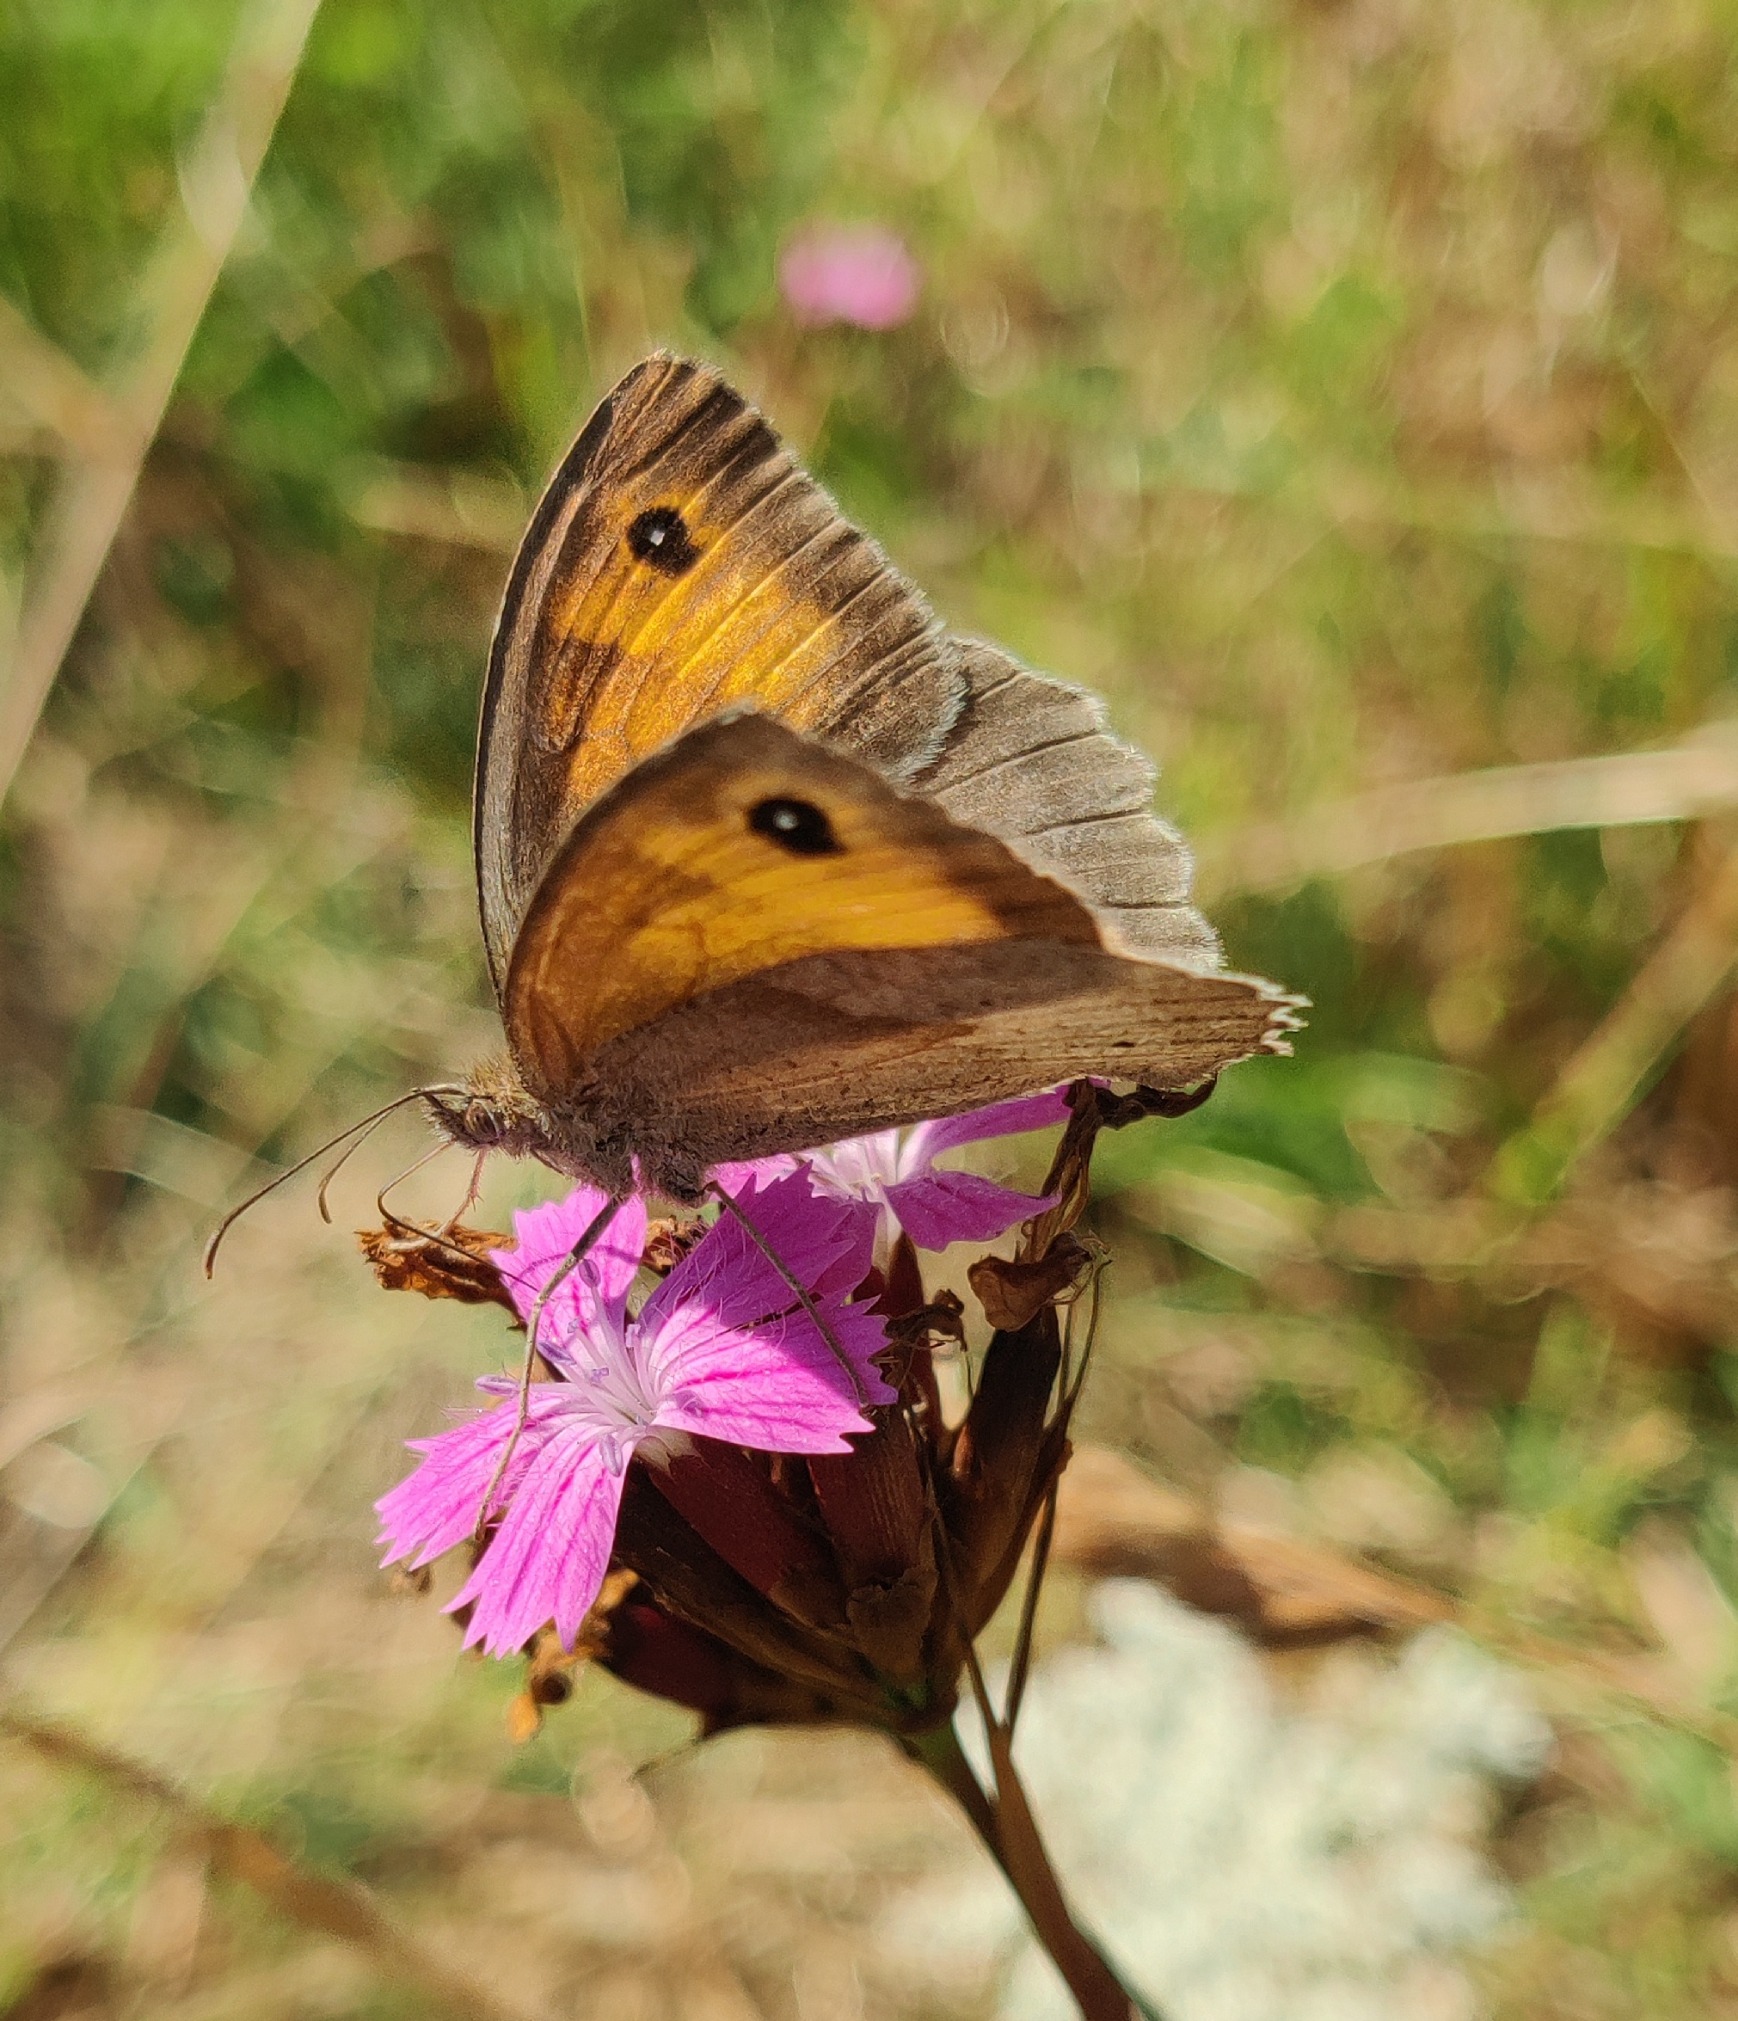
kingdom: Animalia
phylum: Arthropoda
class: Insecta
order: Lepidoptera
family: Nymphalidae
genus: Maniola
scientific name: Maniola jurtina
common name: Græsrandøje
